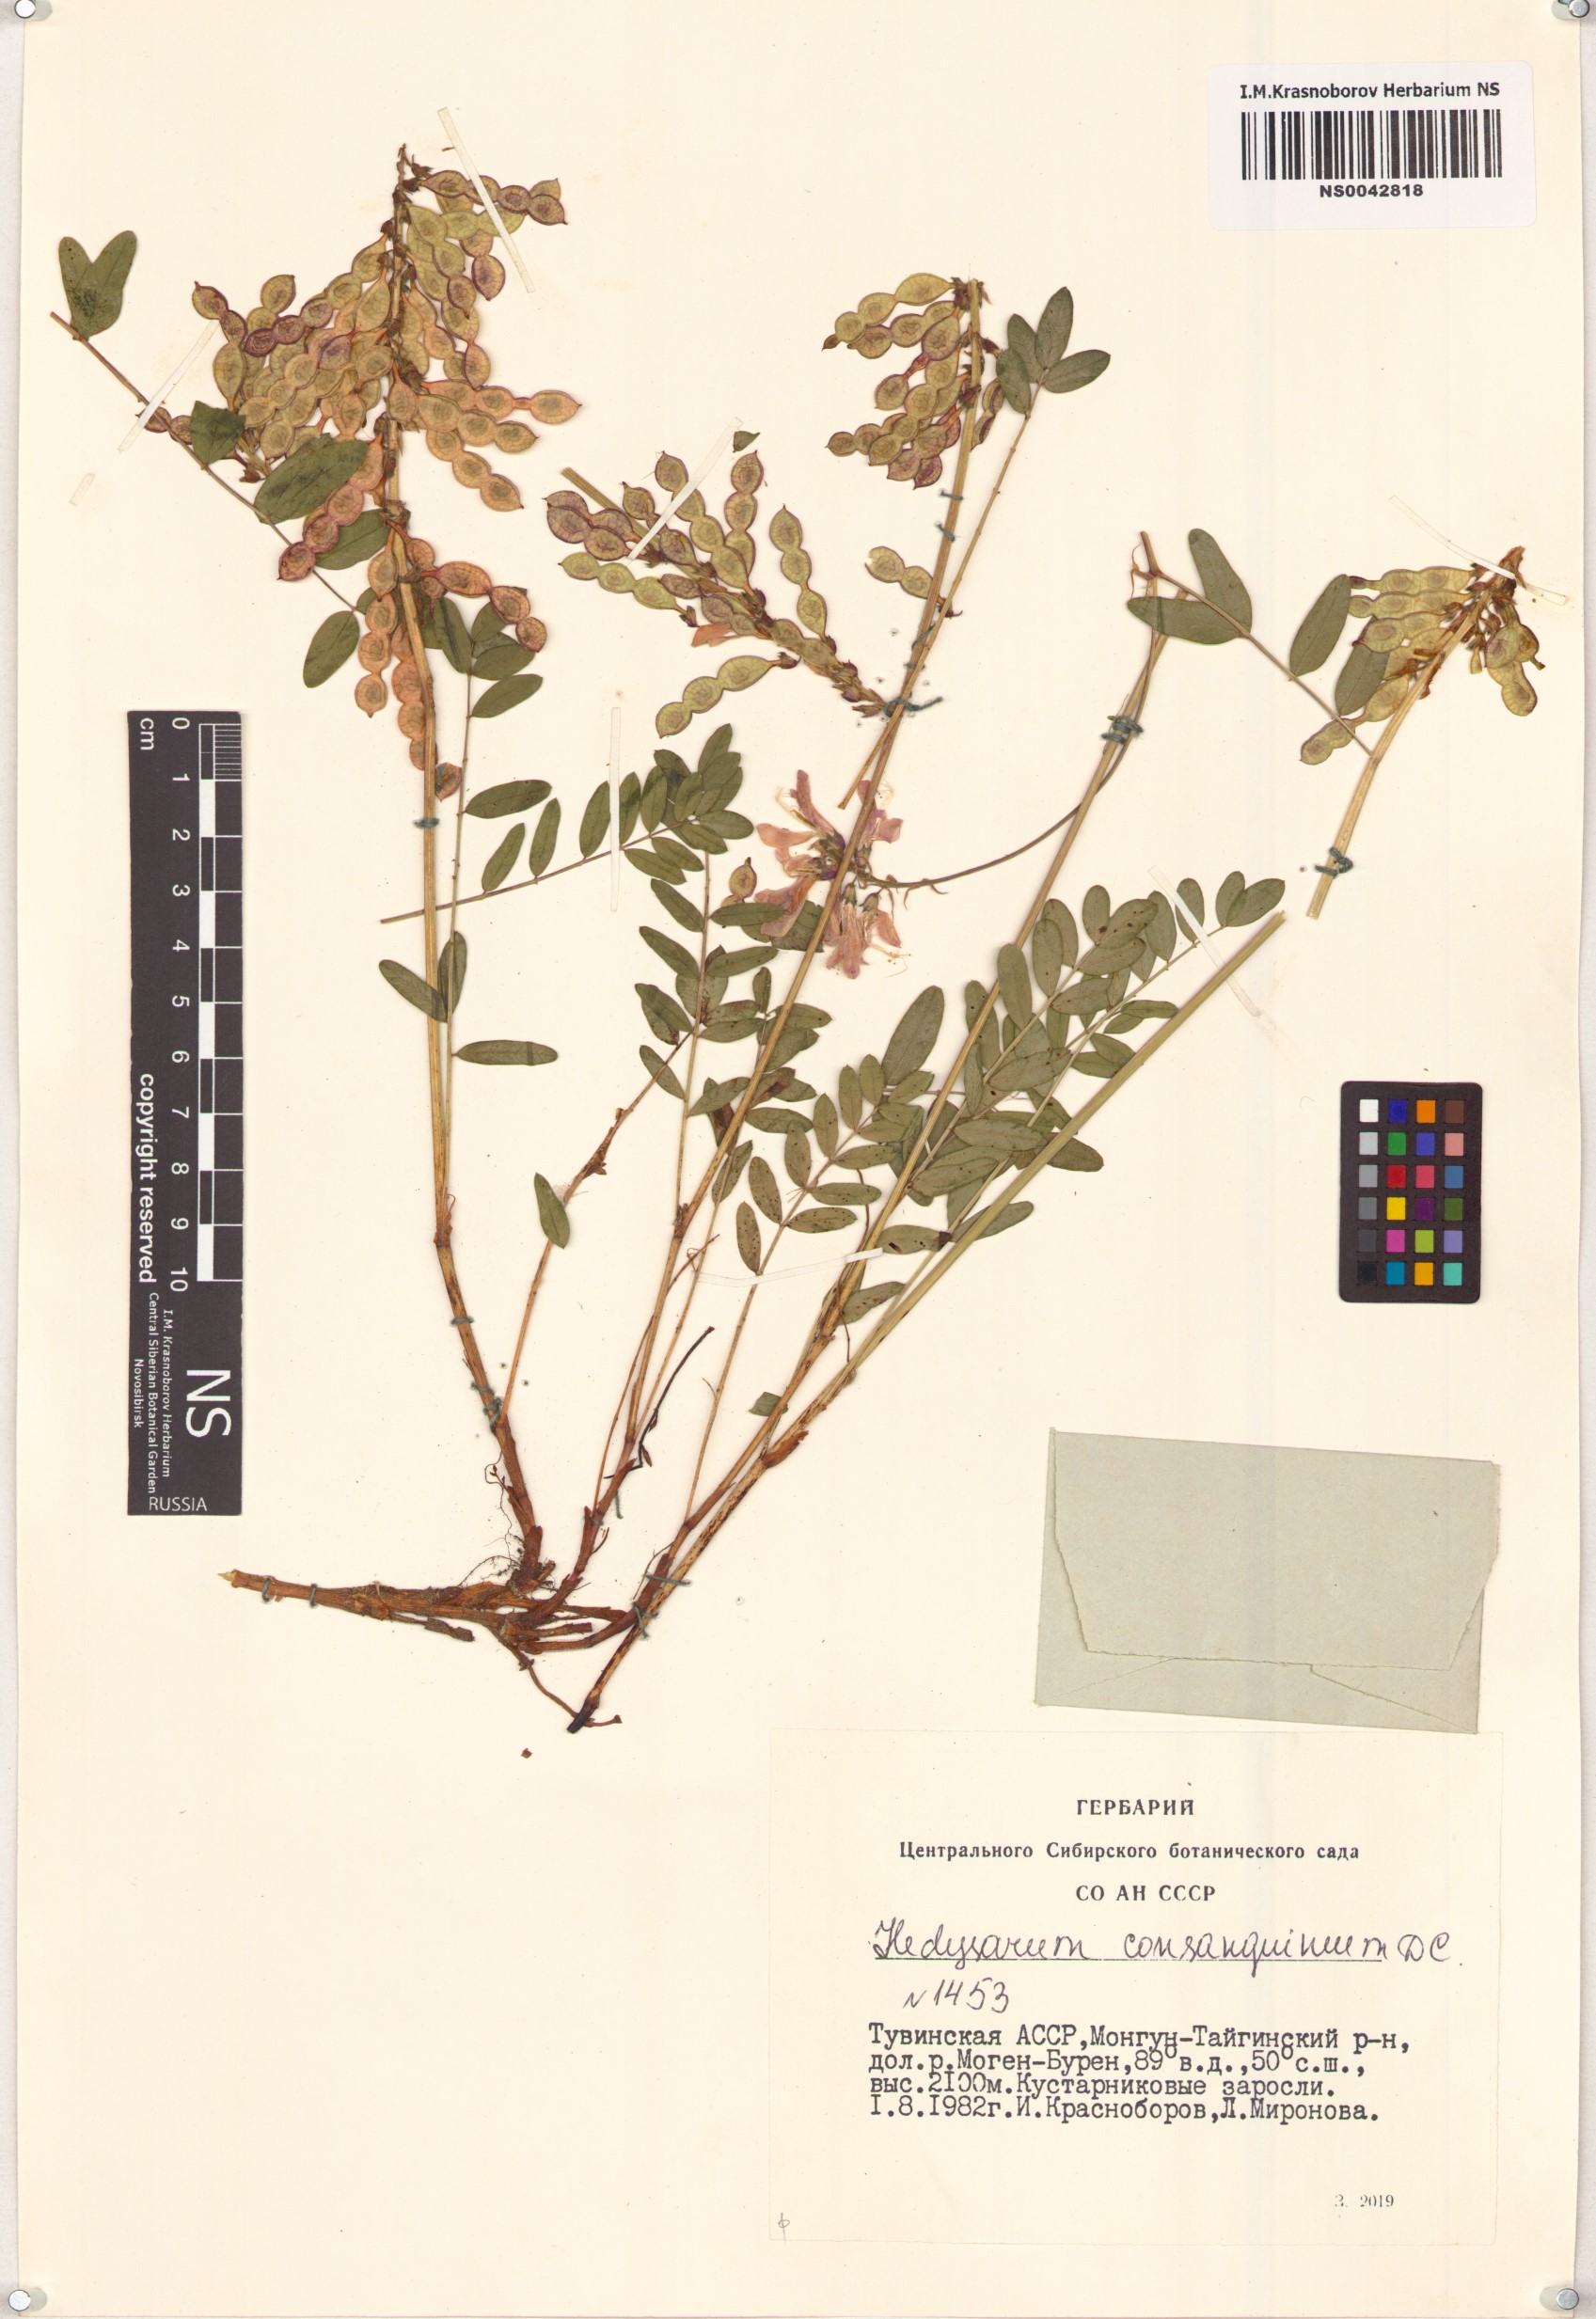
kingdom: Plantae
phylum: Tracheophyta
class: Magnoliopsida
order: Fabales
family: Fabaceae
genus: Hedysarum
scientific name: Hedysarum consanguineum
